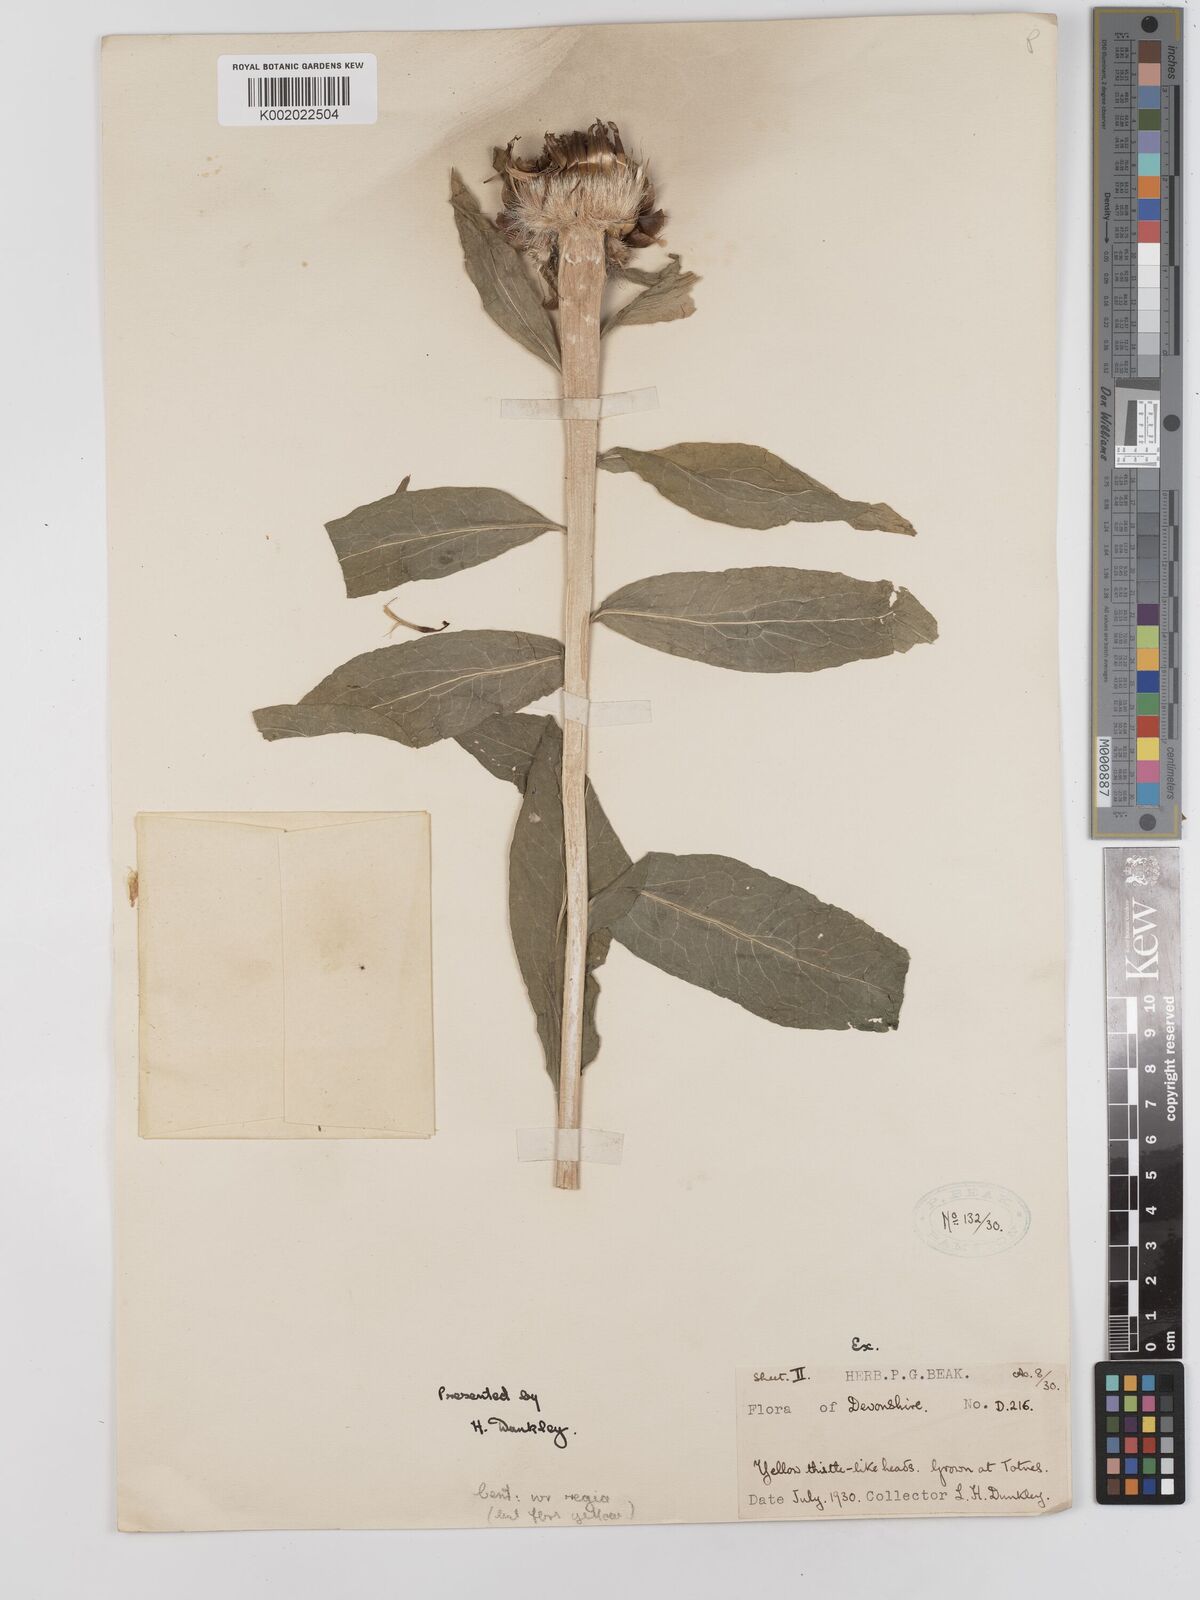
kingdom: Plantae
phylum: Tracheophyta
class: Magnoliopsida
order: Asterales
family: Asteraceae
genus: Centaurea
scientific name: Centaurea macrocephala
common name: Big-head knapweed
